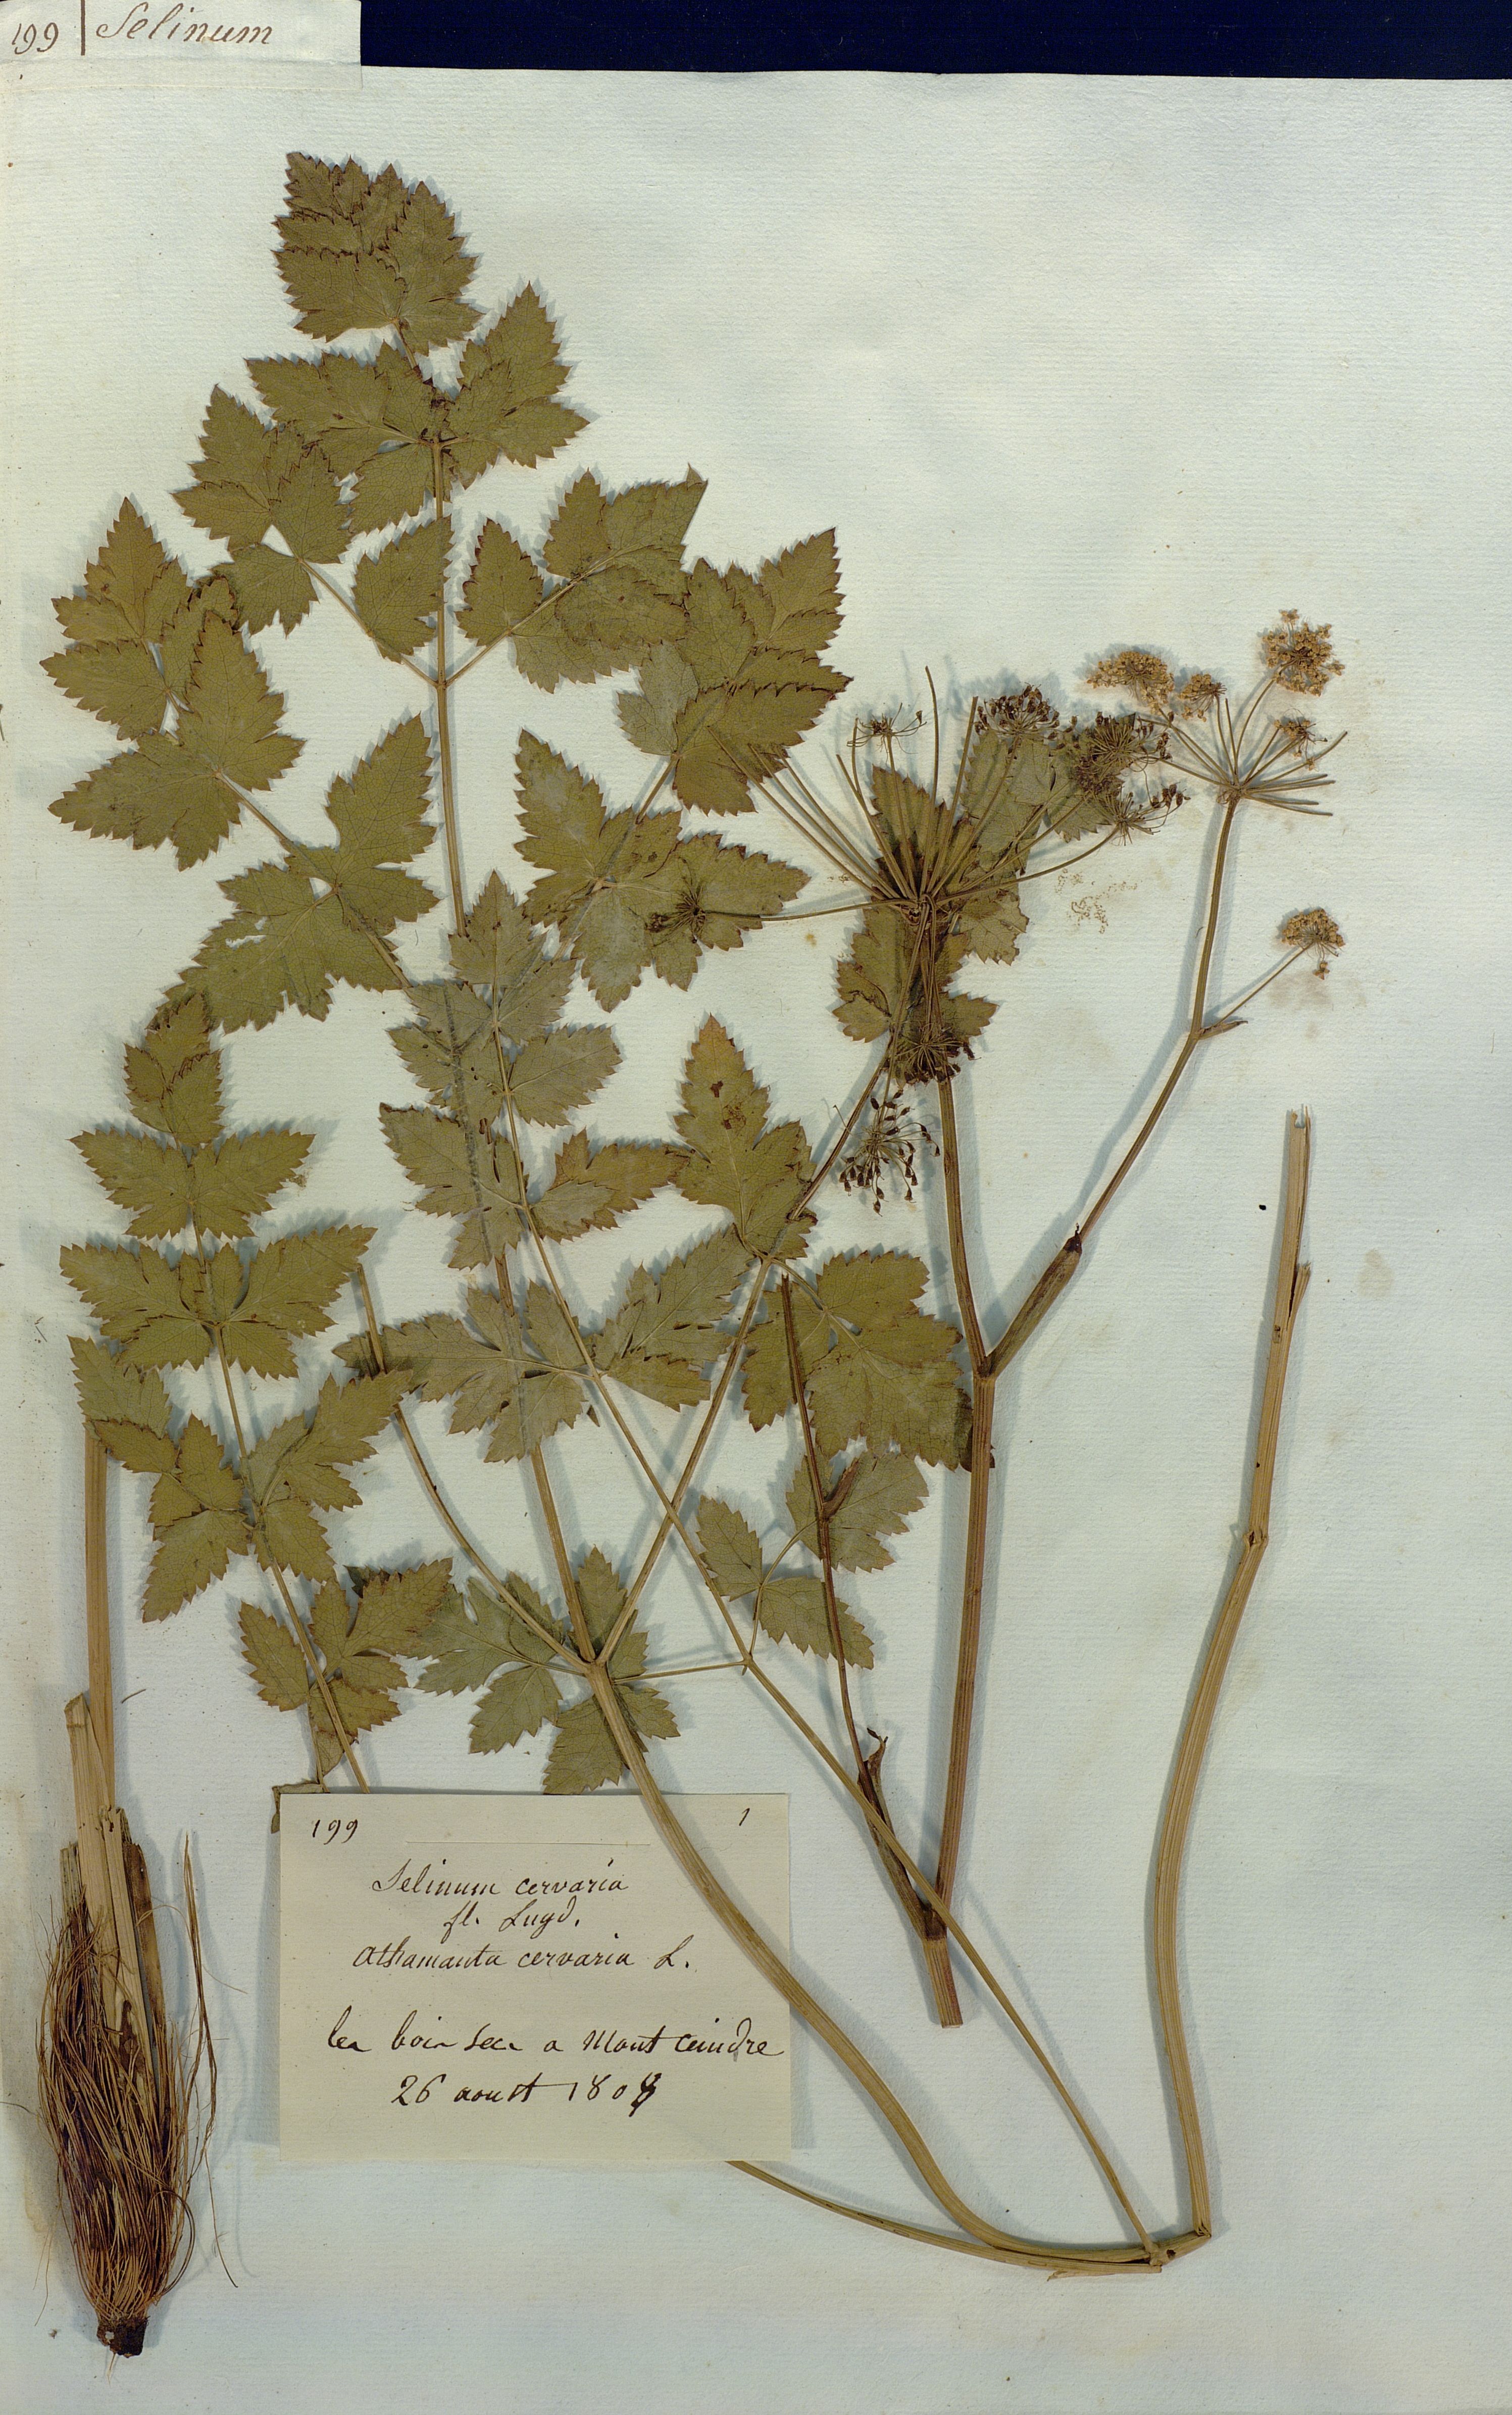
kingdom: Plantae
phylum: Tracheophyta
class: Magnoliopsida
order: Apiales
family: Apiaceae
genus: Cervaria
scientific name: Cervaria rivini
